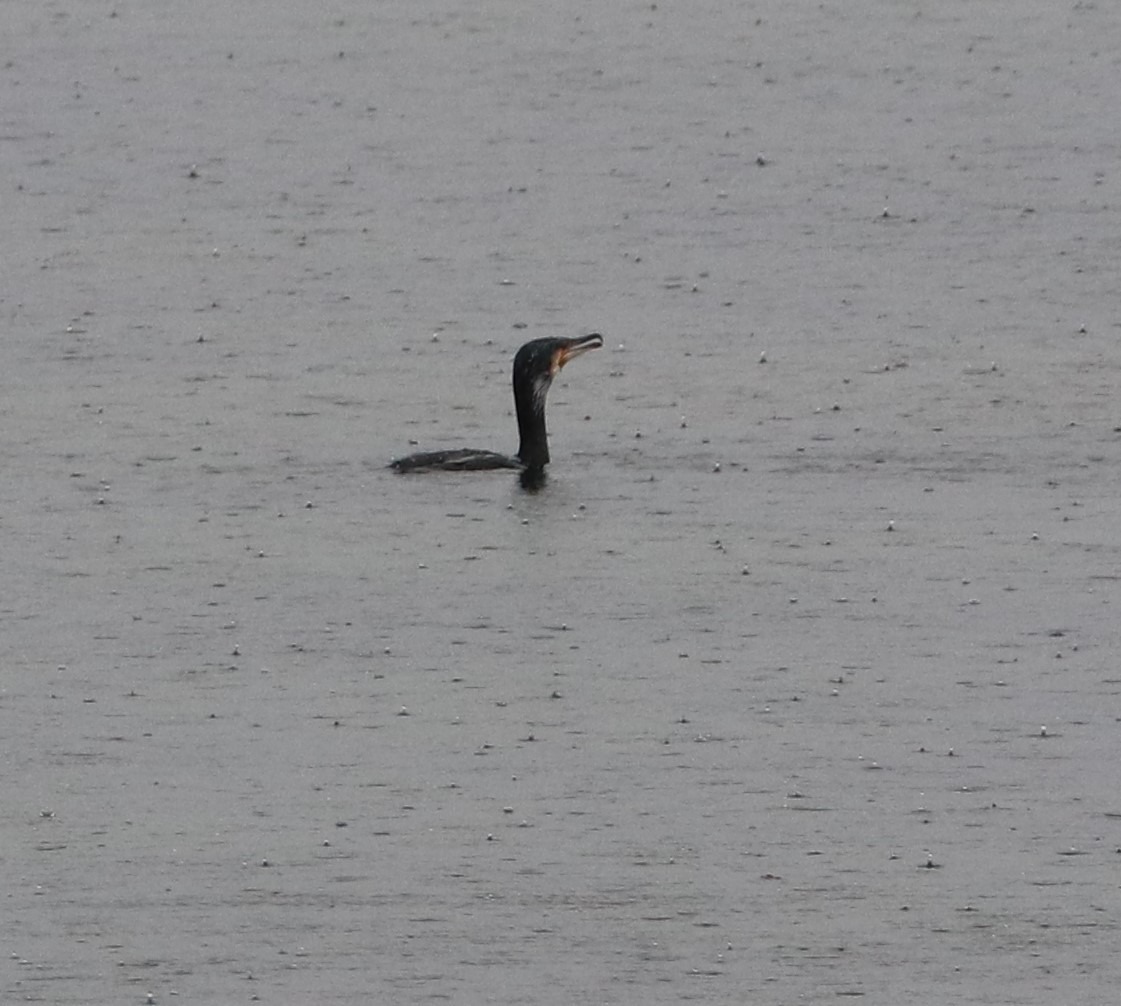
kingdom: Animalia
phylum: Chordata
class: Aves
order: Suliformes
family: Phalacrocoracidae
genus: Phalacrocorax
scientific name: Phalacrocorax carbo
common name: Skarv
